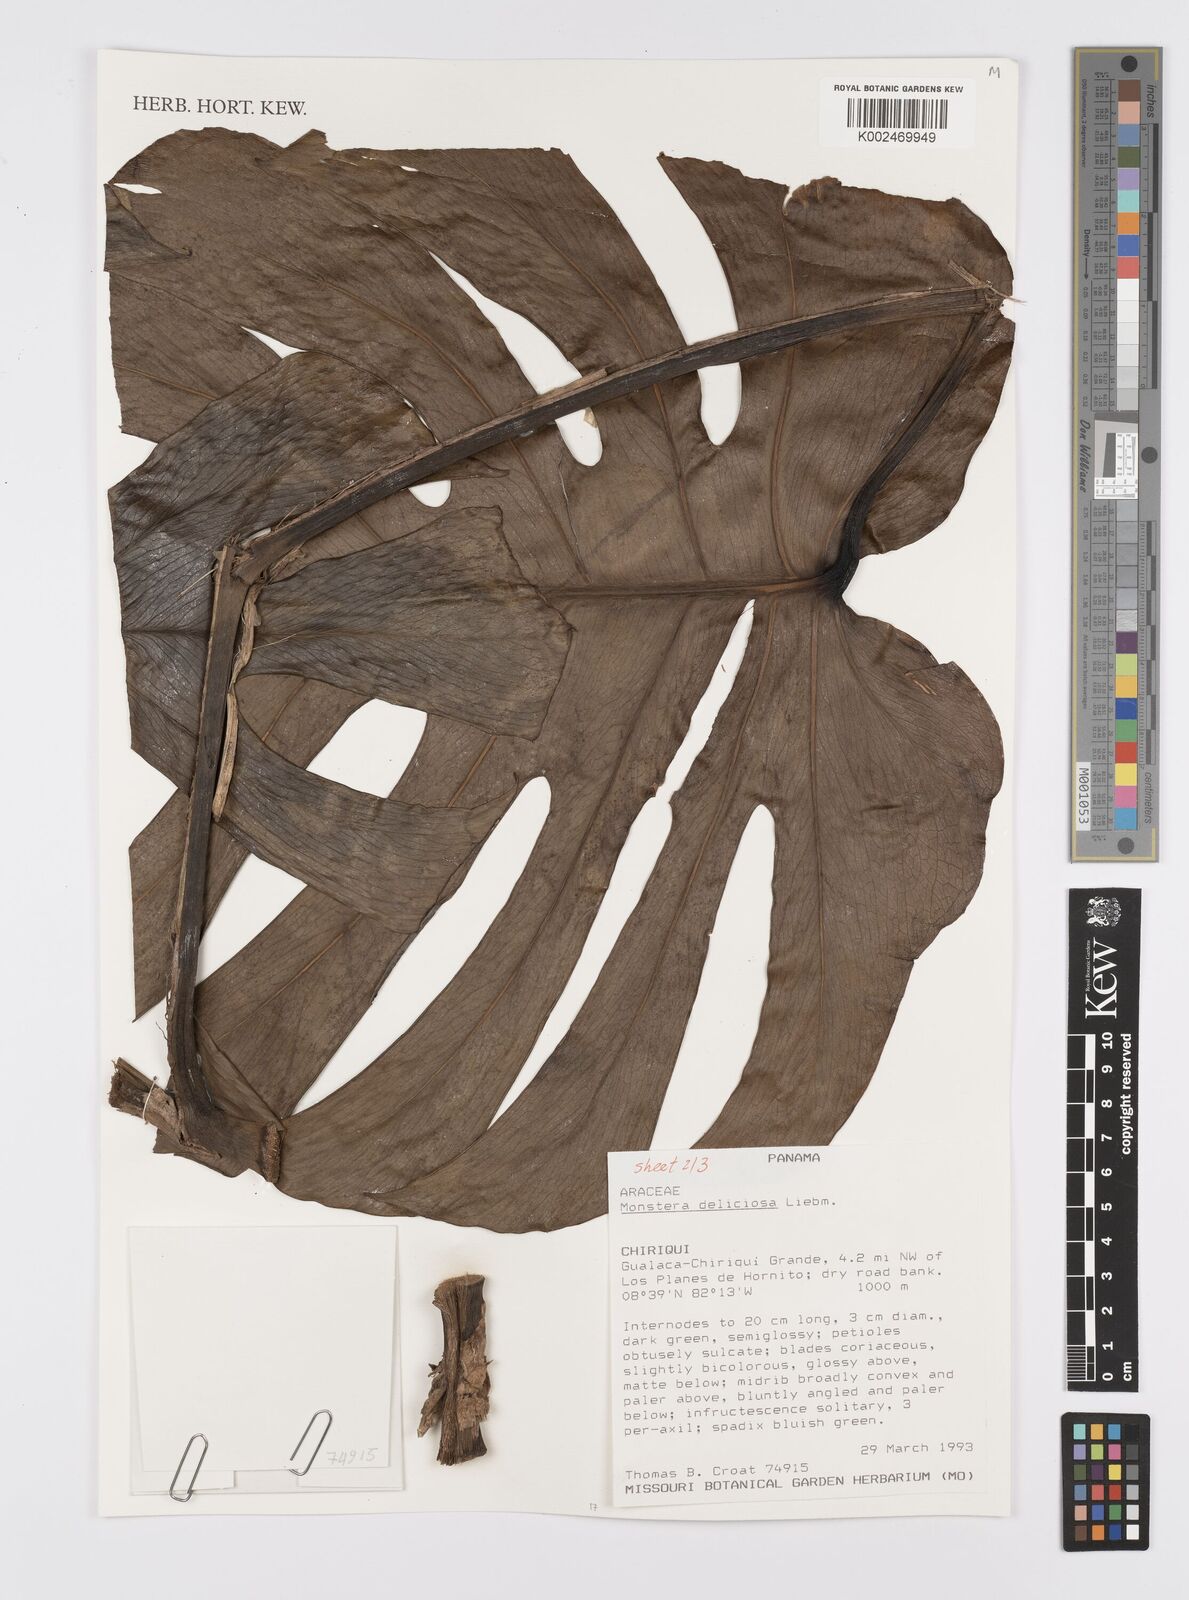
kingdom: Plantae
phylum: Tracheophyta
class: Liliopsida
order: Alismatales
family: Araceae
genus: Monstera
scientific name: Monstera deliciosa
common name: Cut-leaf-philodendron
